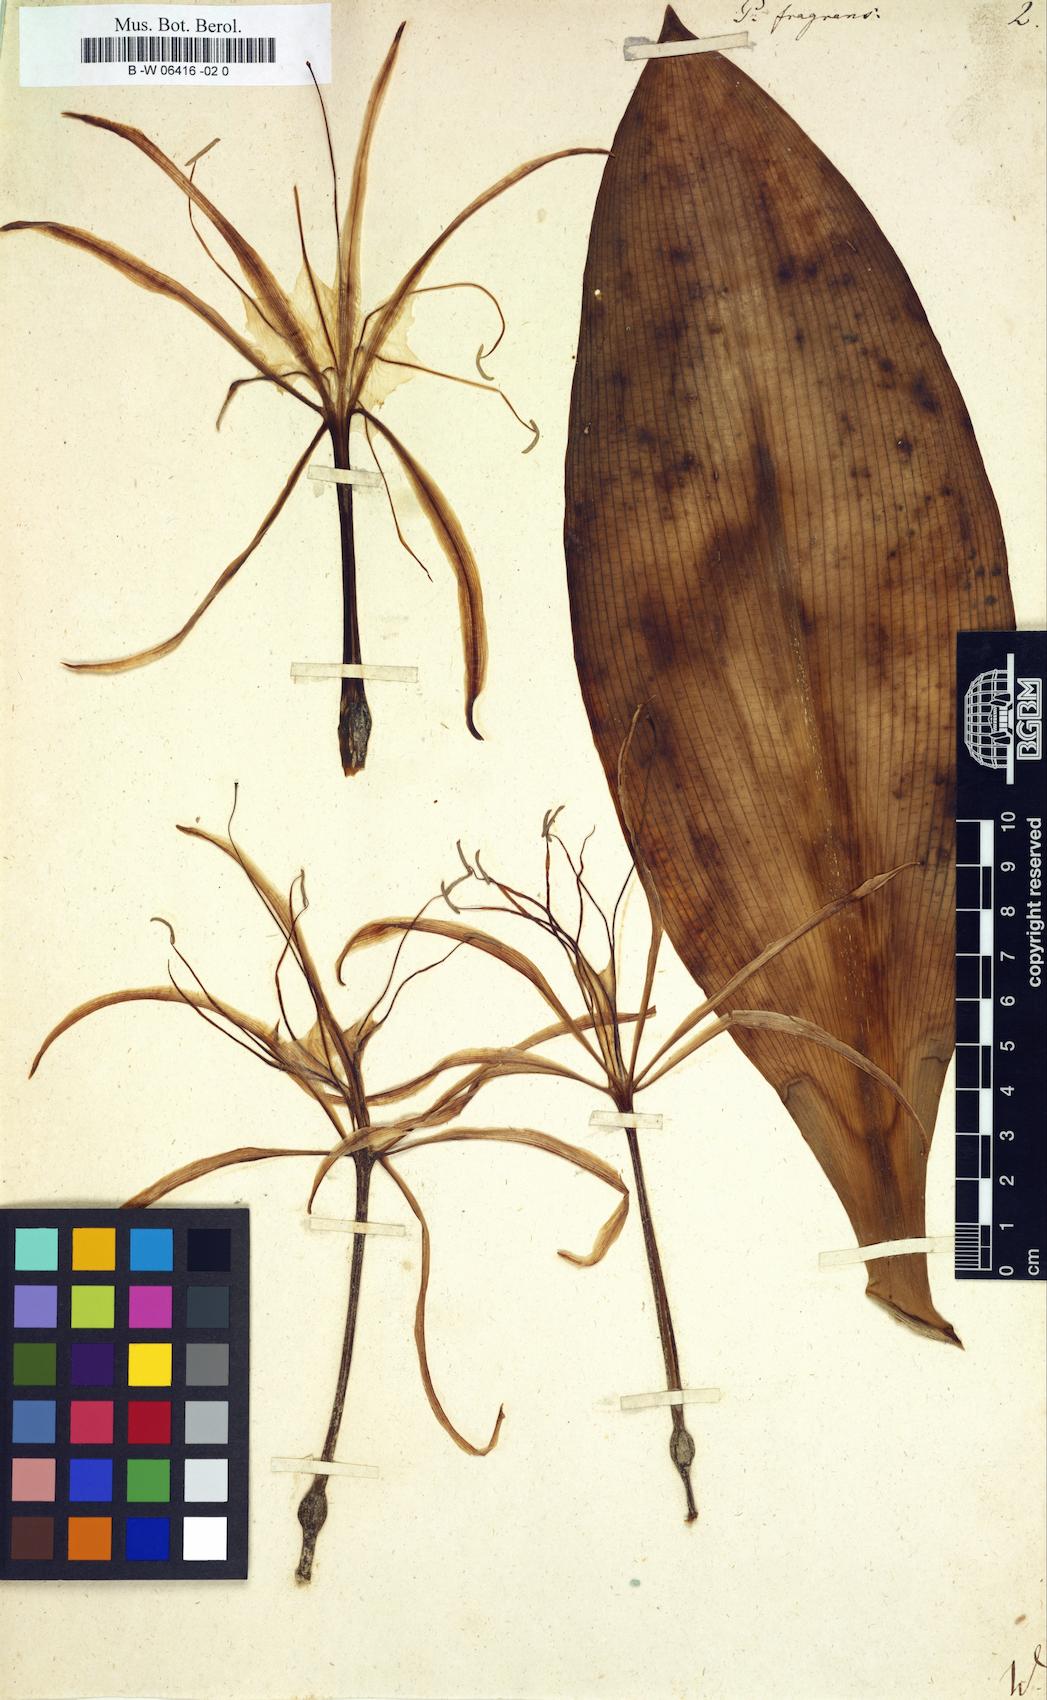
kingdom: Plantae
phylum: Tracheophyta
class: Liliopsida
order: Asparagales
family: Amaryllidaceae
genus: Pancratium
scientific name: Pancratium fragrans
